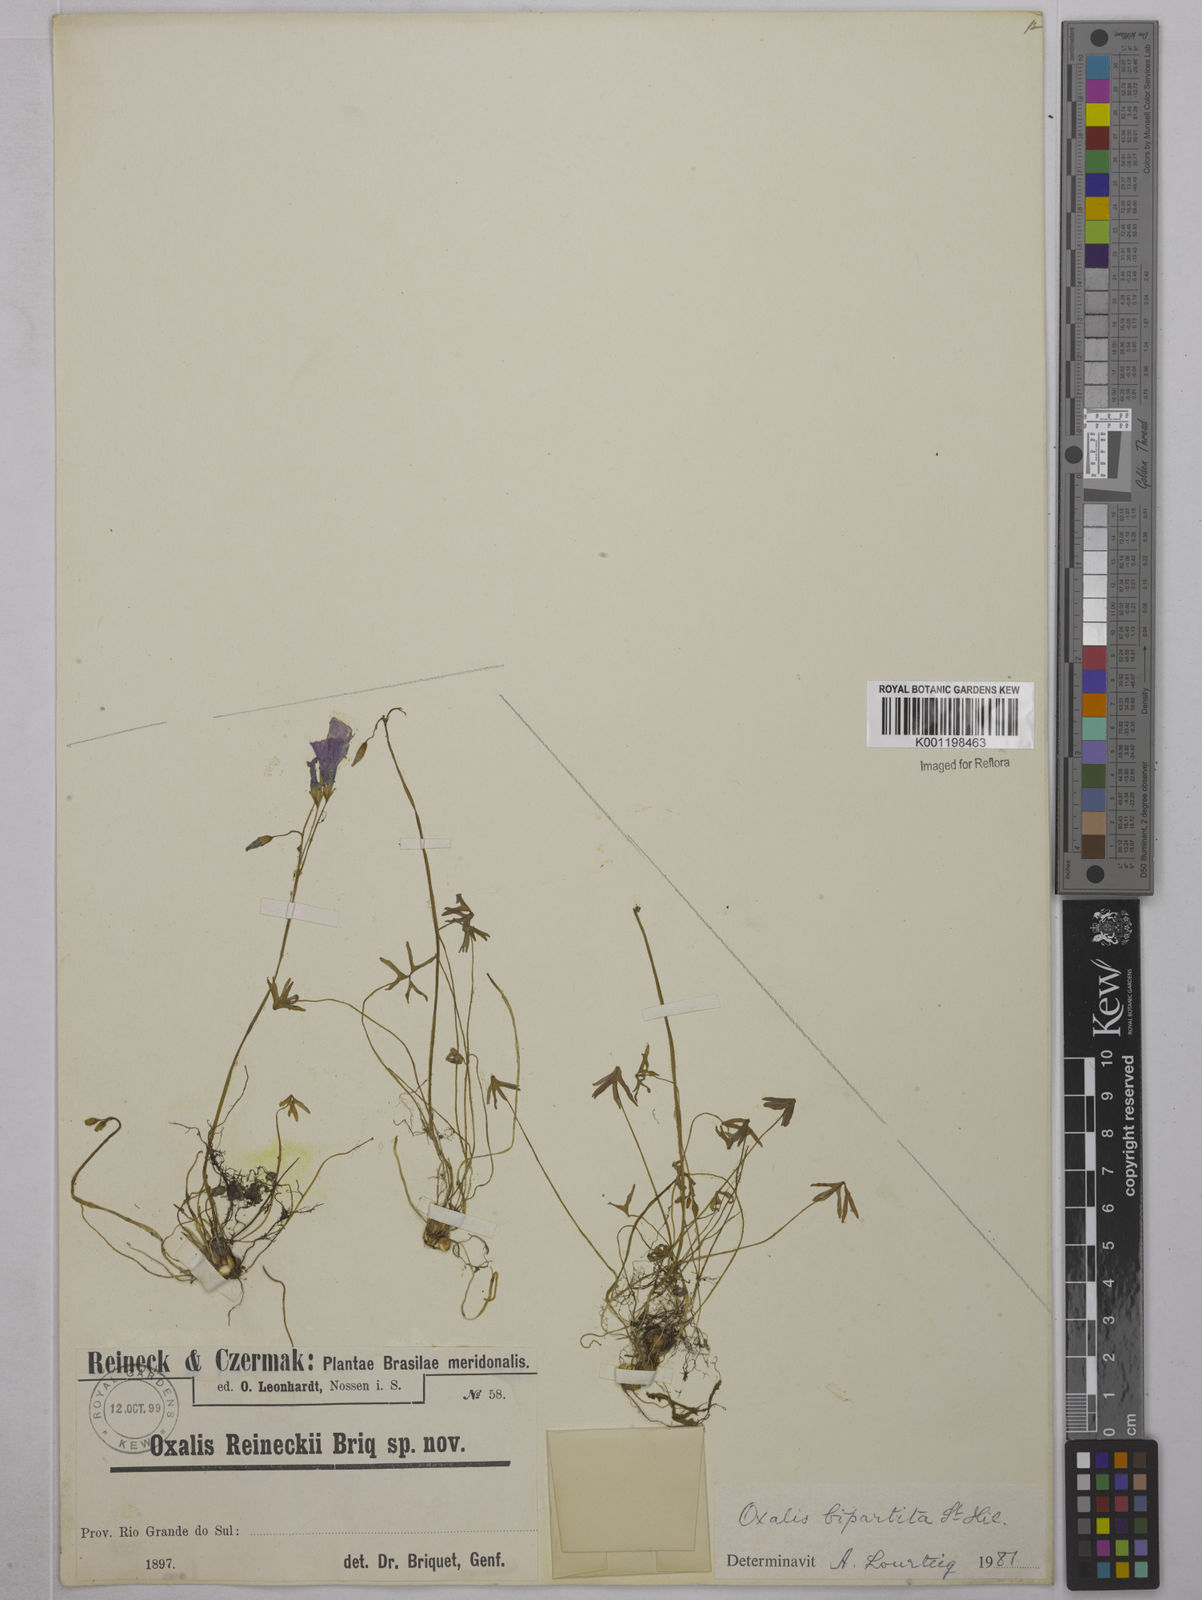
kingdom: Plantae
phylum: Tracheophyta
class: Magnoliopsida
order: Oxalidales
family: Oxalidaceae
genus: Oxalis
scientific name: Oxalis bipartita
